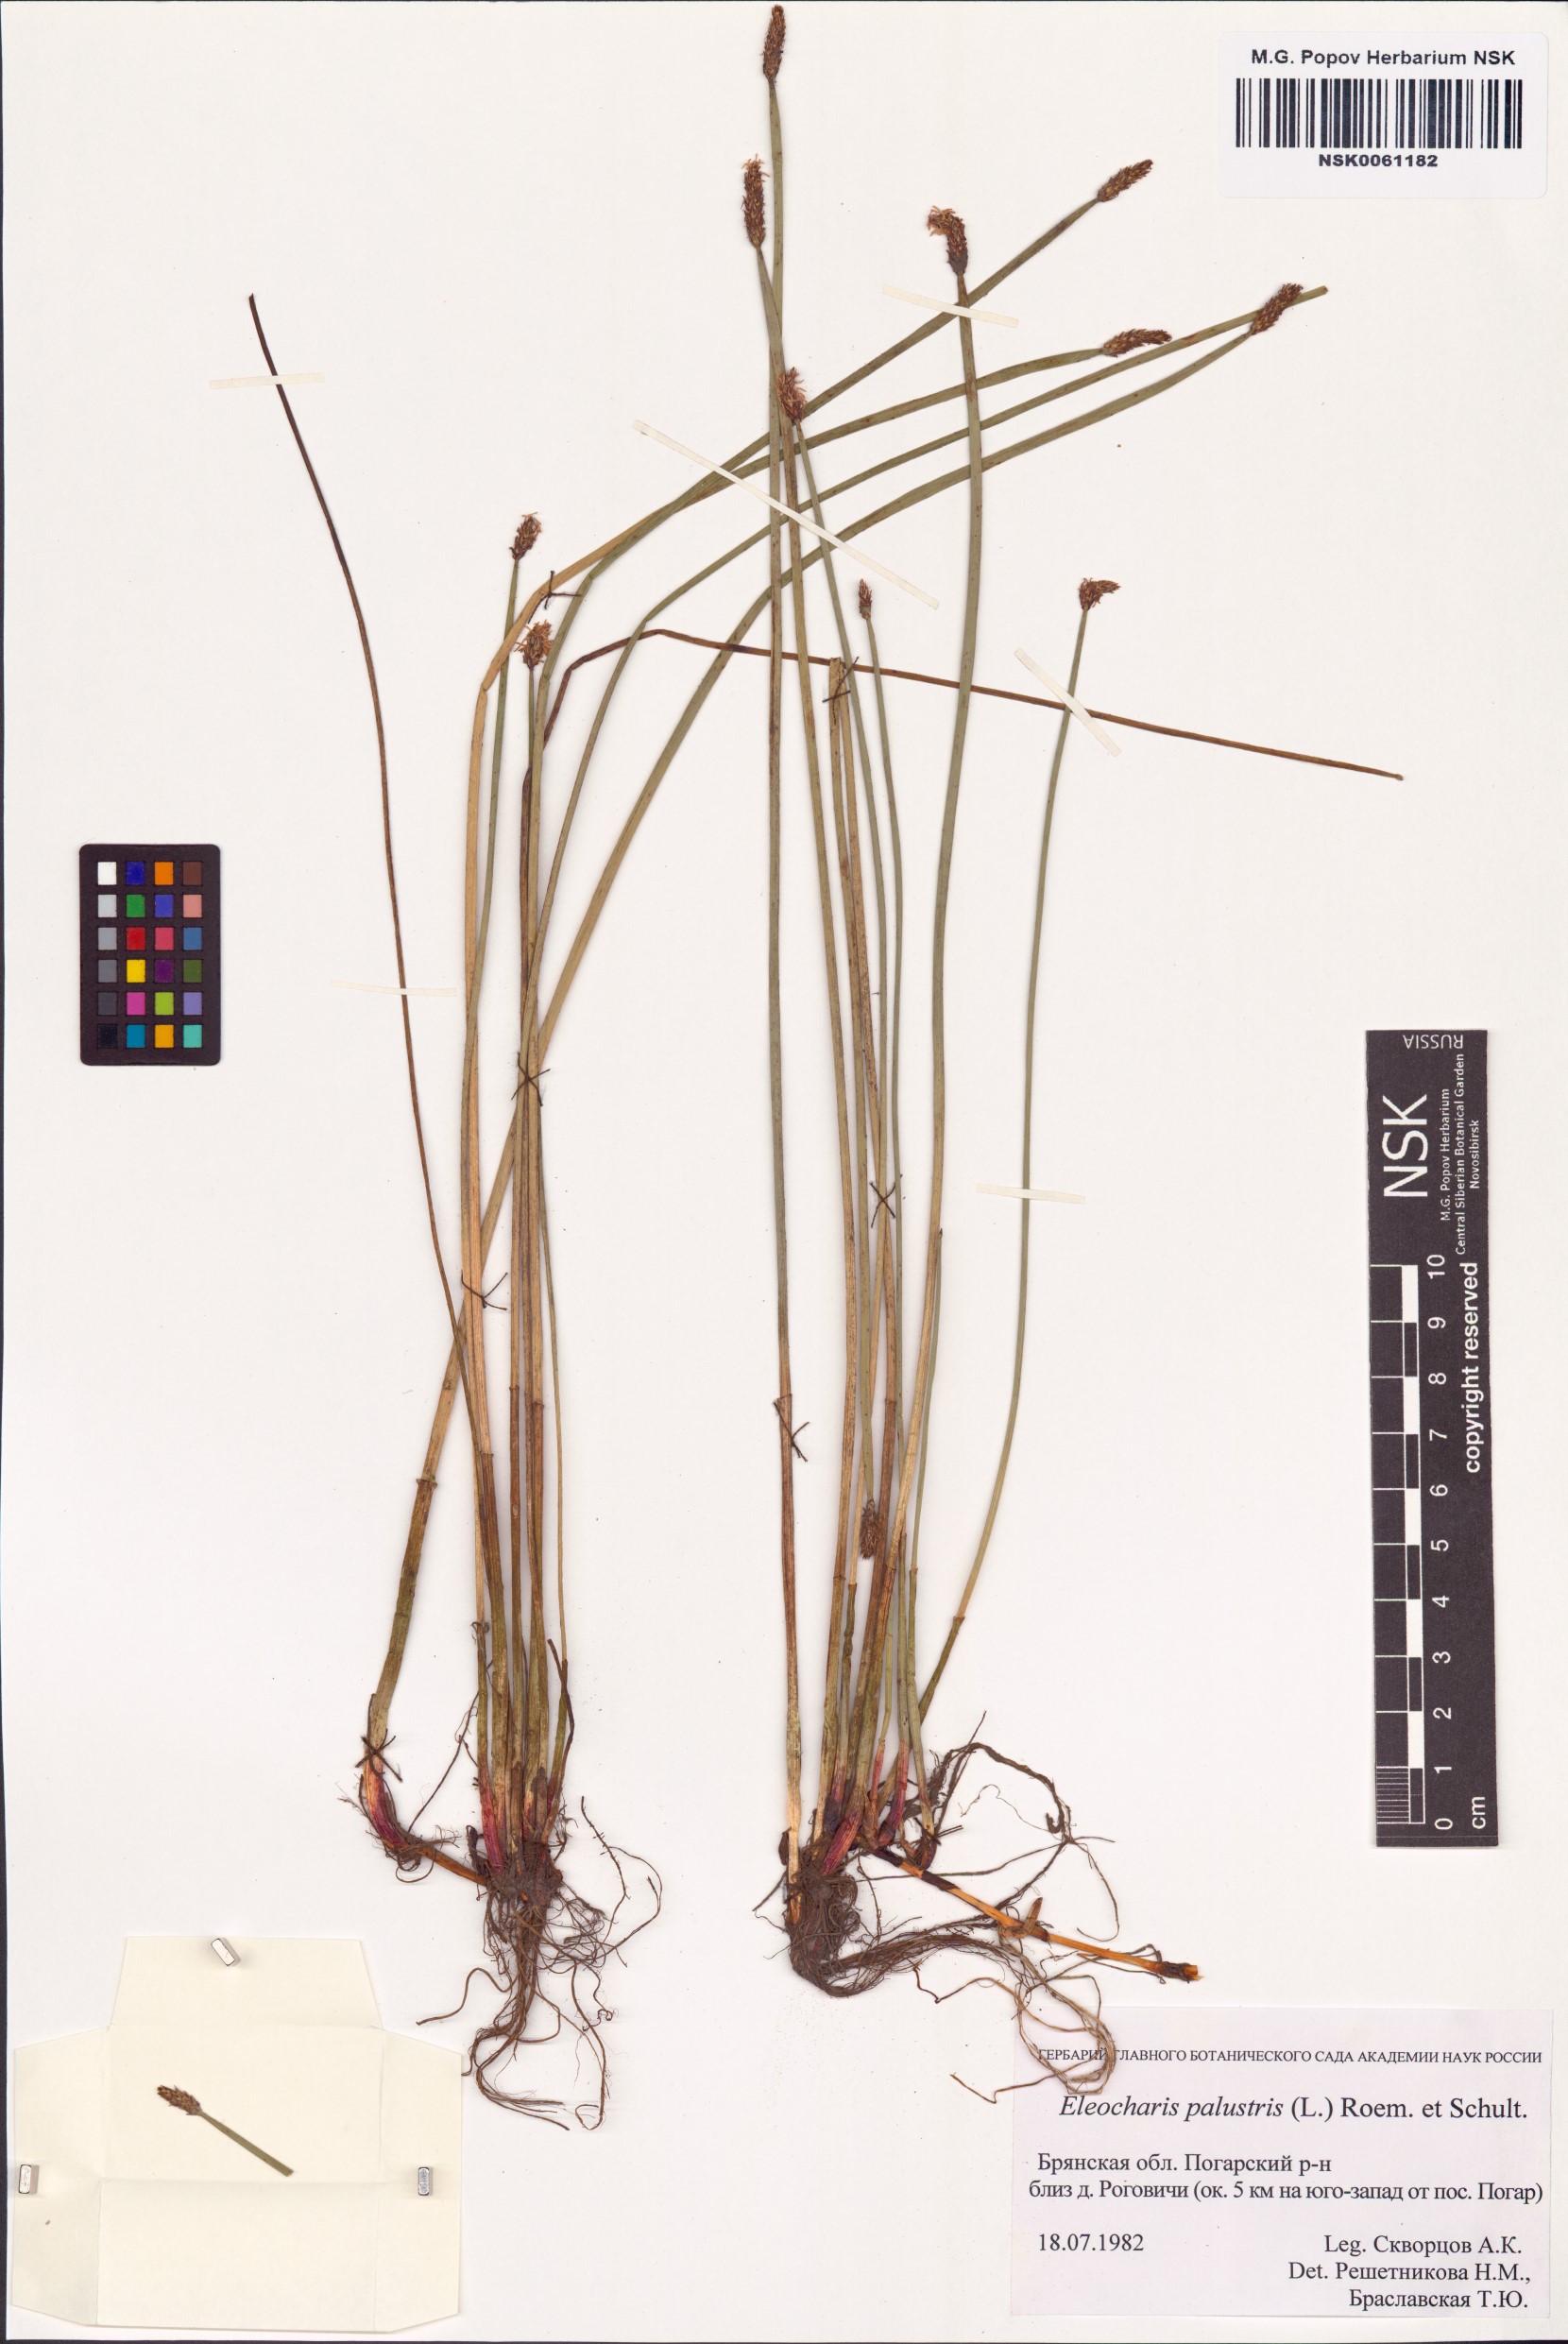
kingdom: Plantae
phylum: Tracheophyta
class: Liliopsida
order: Poales
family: Cyperaceae
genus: Eleocharis
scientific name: Eleocharis palustris
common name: Common spike-rush
